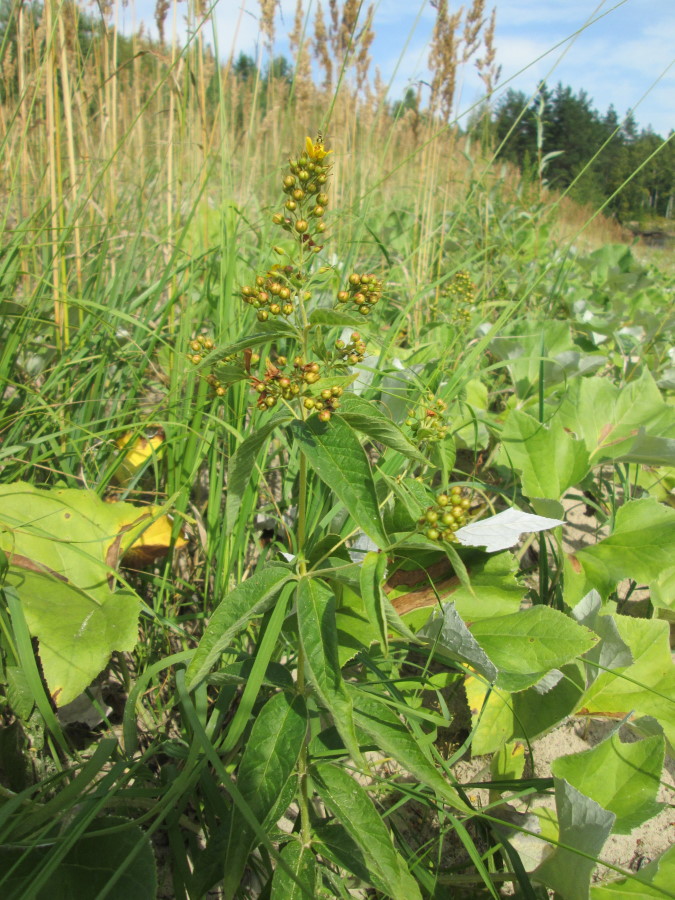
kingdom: Plantae
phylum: Tracheophyta
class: Magnoliopsida
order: Ericales
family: Primulaceae
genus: Lysimachia
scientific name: Lysimachia vulgaris
